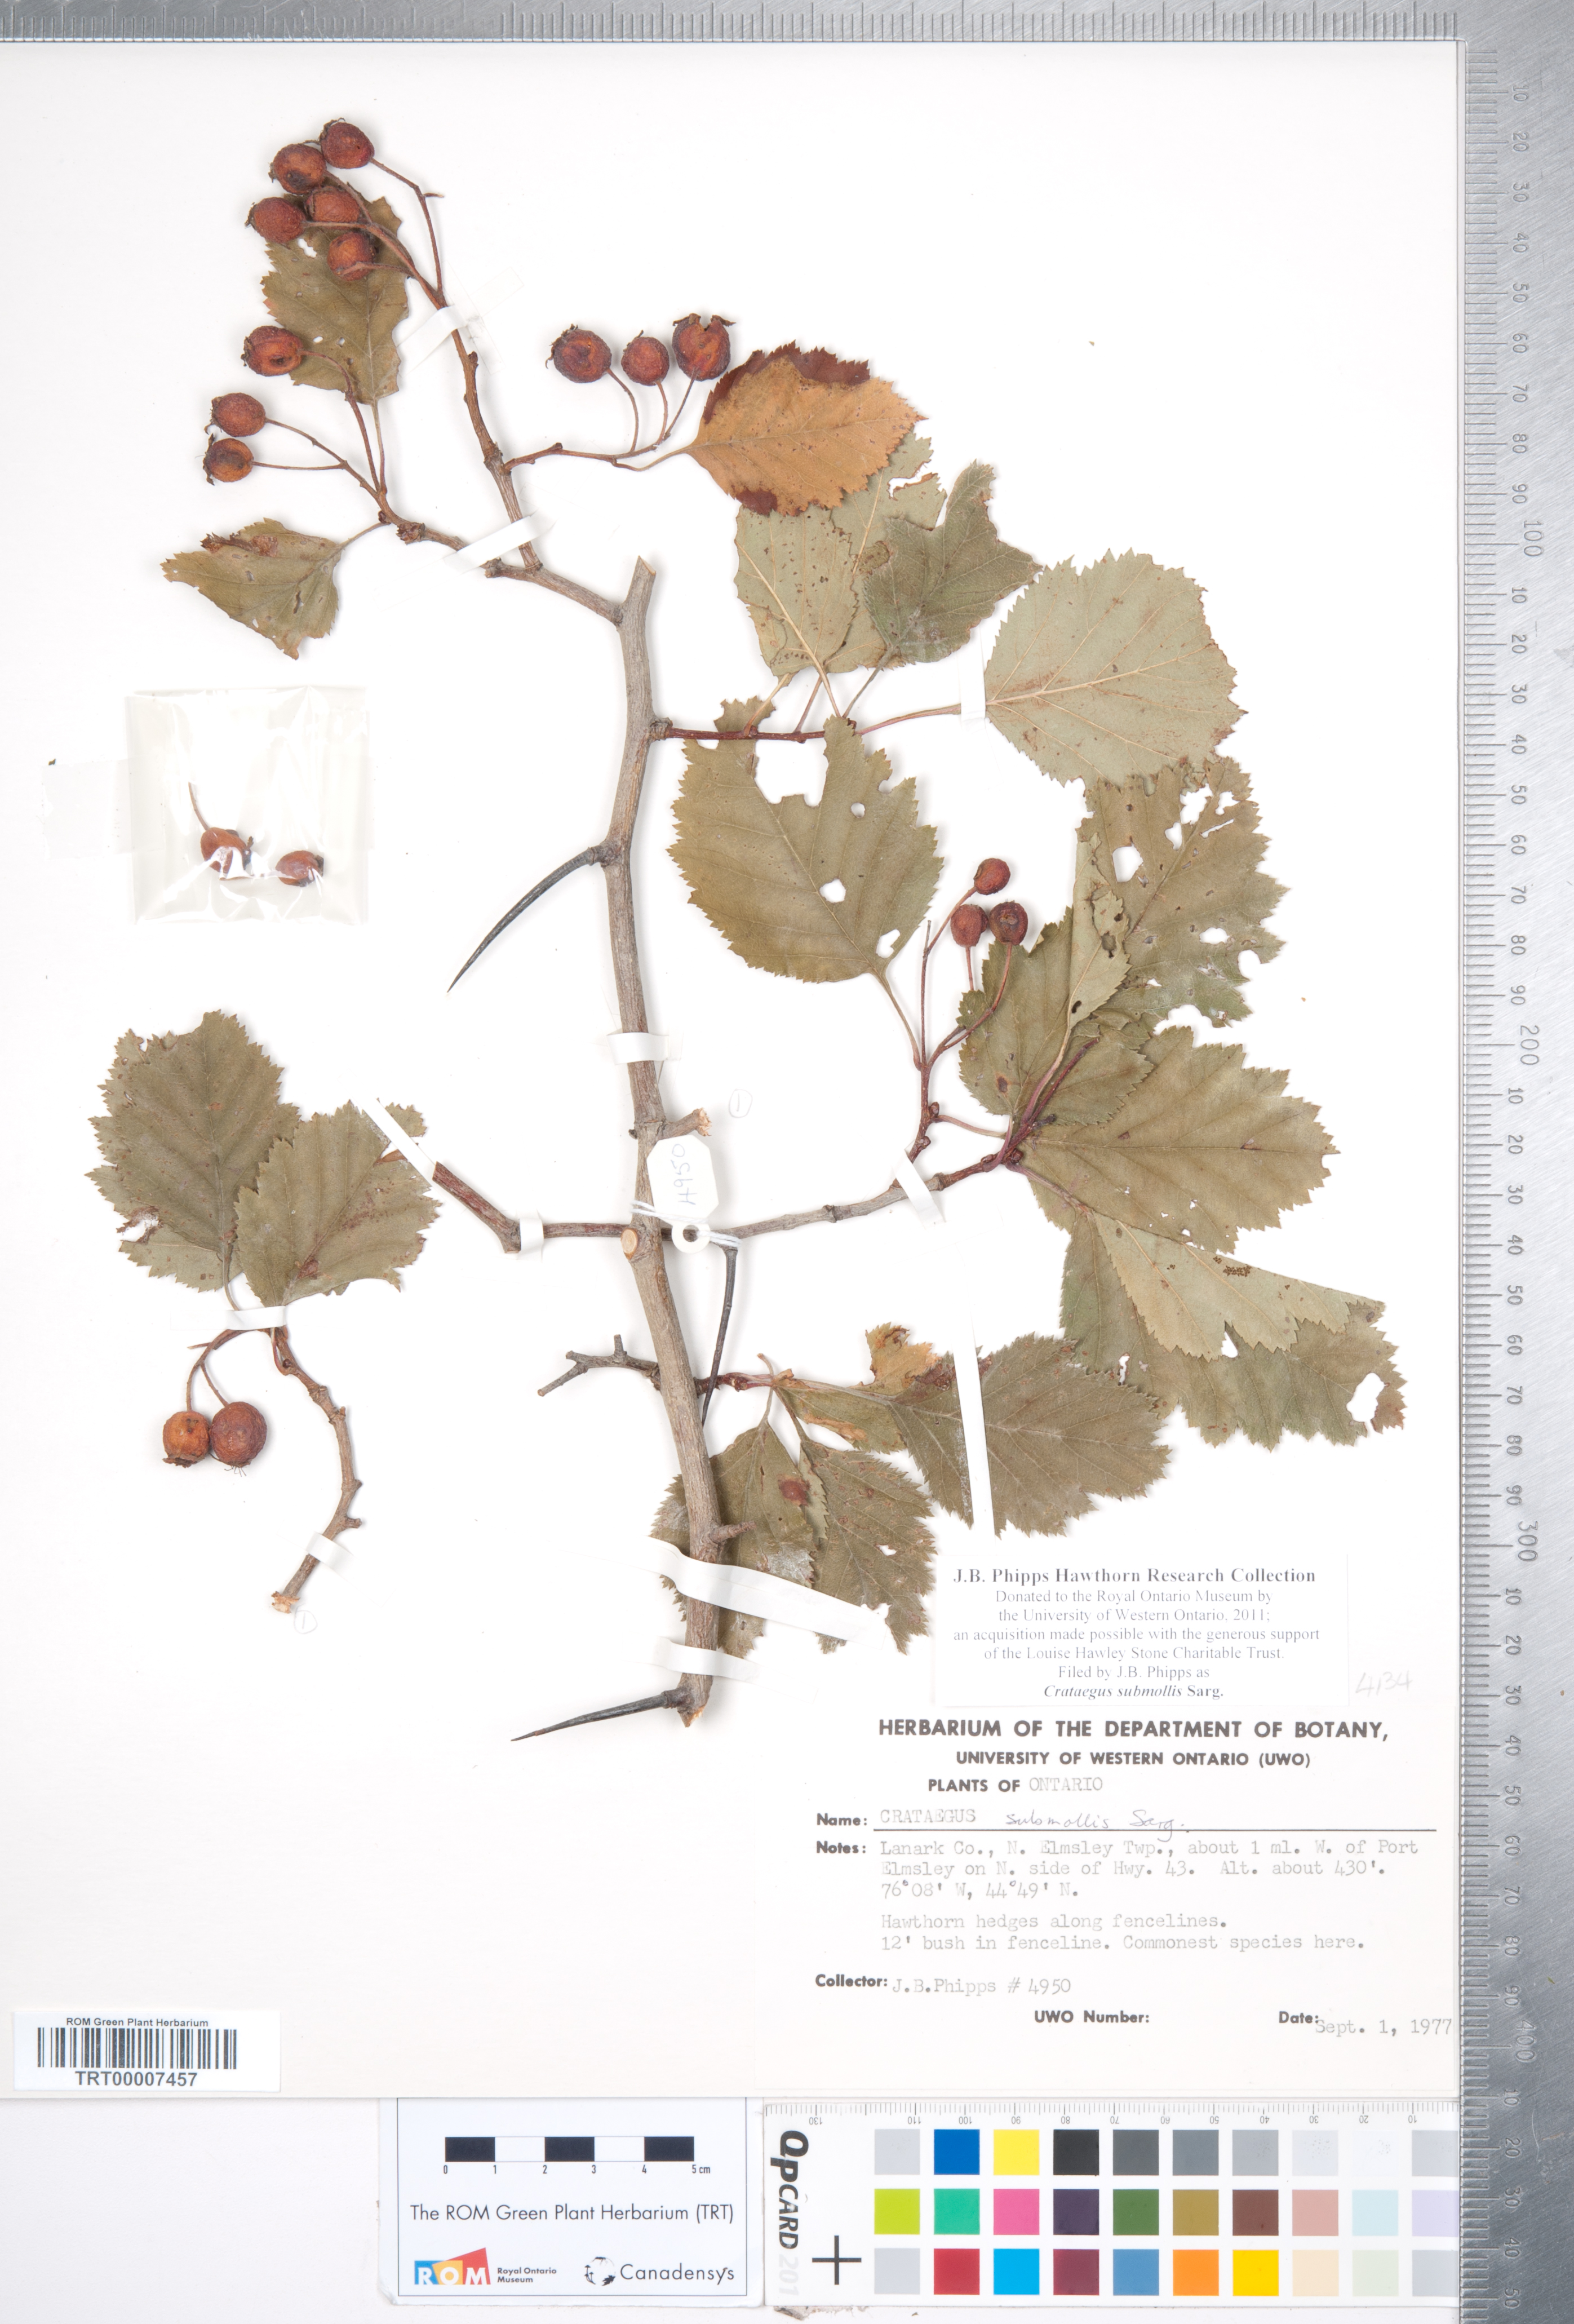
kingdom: Plantae
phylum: Tracheophyta
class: Magnoliopsida
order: Rosales
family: Rosaceae
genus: Crataegus
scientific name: Crataegus submollis
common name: Hairy cockspurthorn
